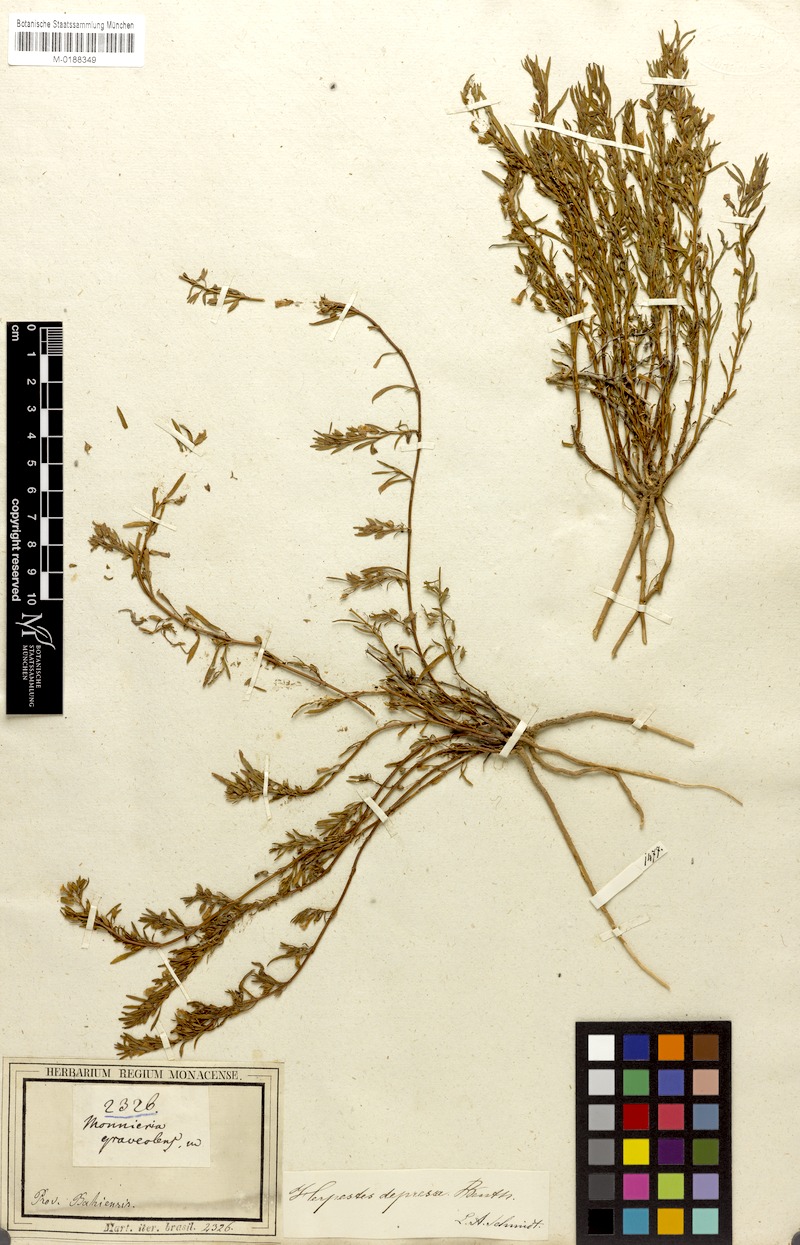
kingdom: Plantae
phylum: Tracheophyta
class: Magnoliopsida
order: Lamiales
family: Plantaginaceae
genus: Bacopa
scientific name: Bacopa depressa
